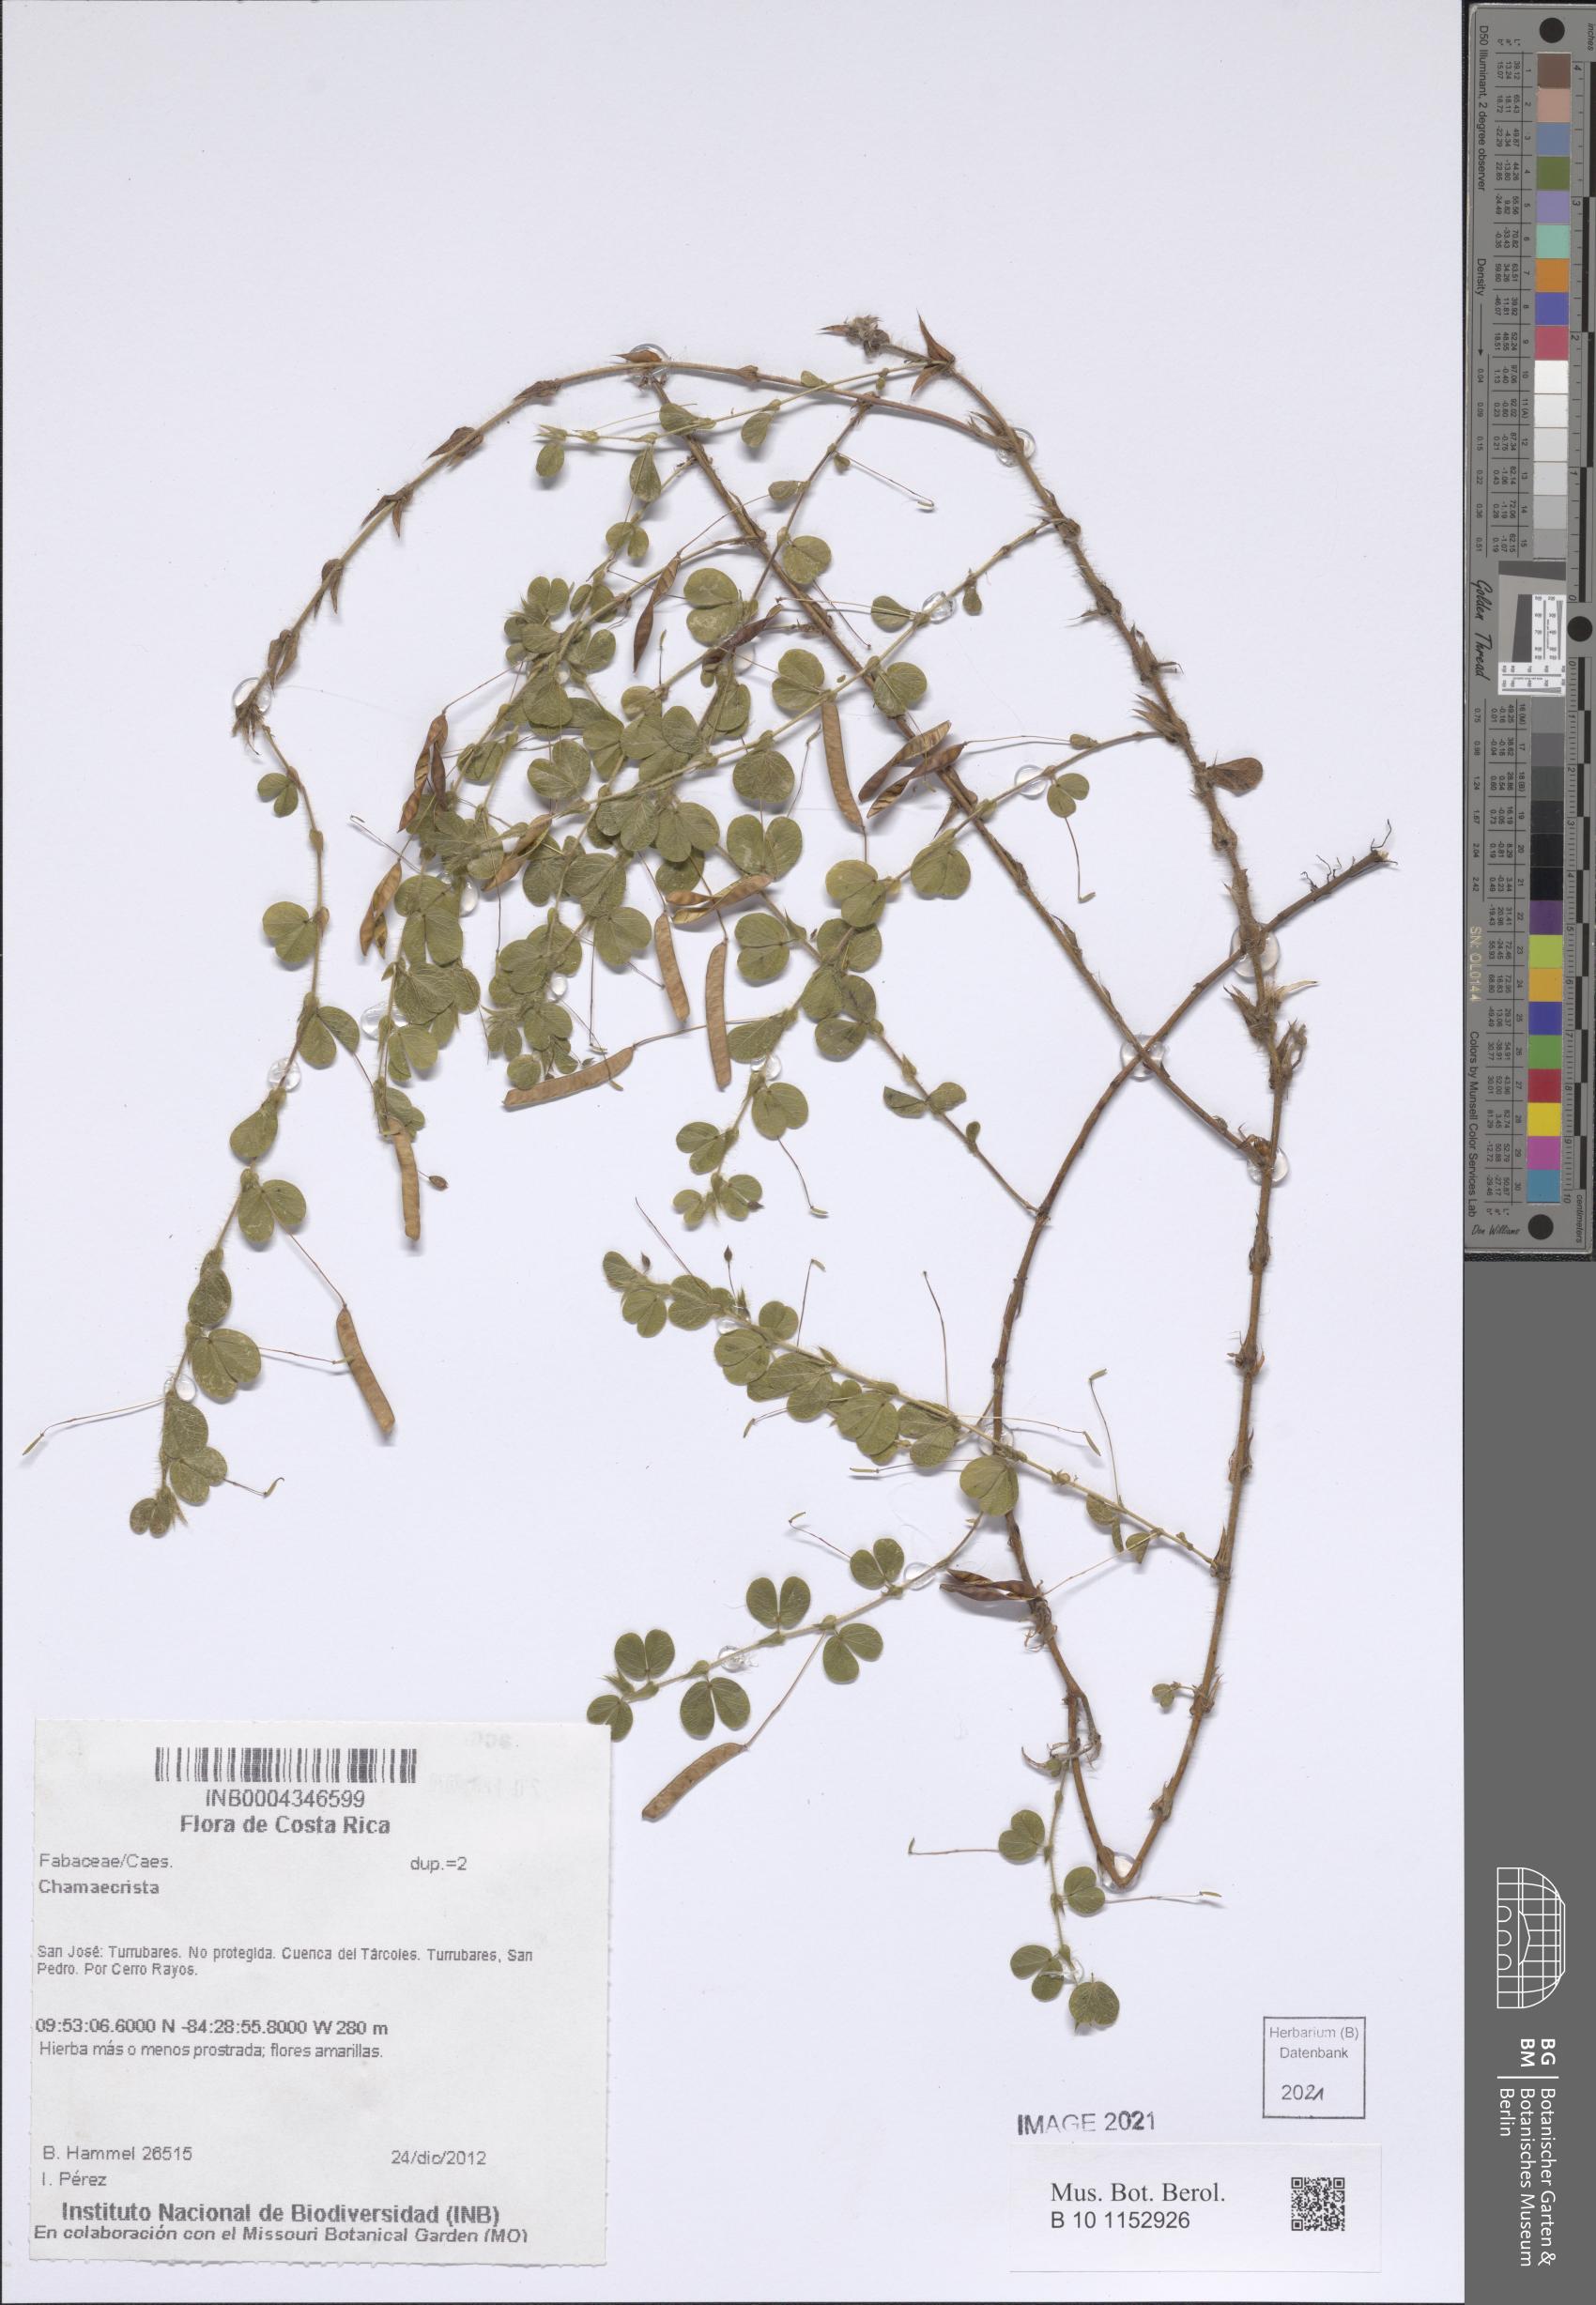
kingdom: Plantae
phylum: Tracheophyta
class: Magnoliopsida
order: Fabales
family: Fabaceae
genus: Chamaecrista
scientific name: Chamaecrista rotundifolia
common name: Round-leaf cassia
